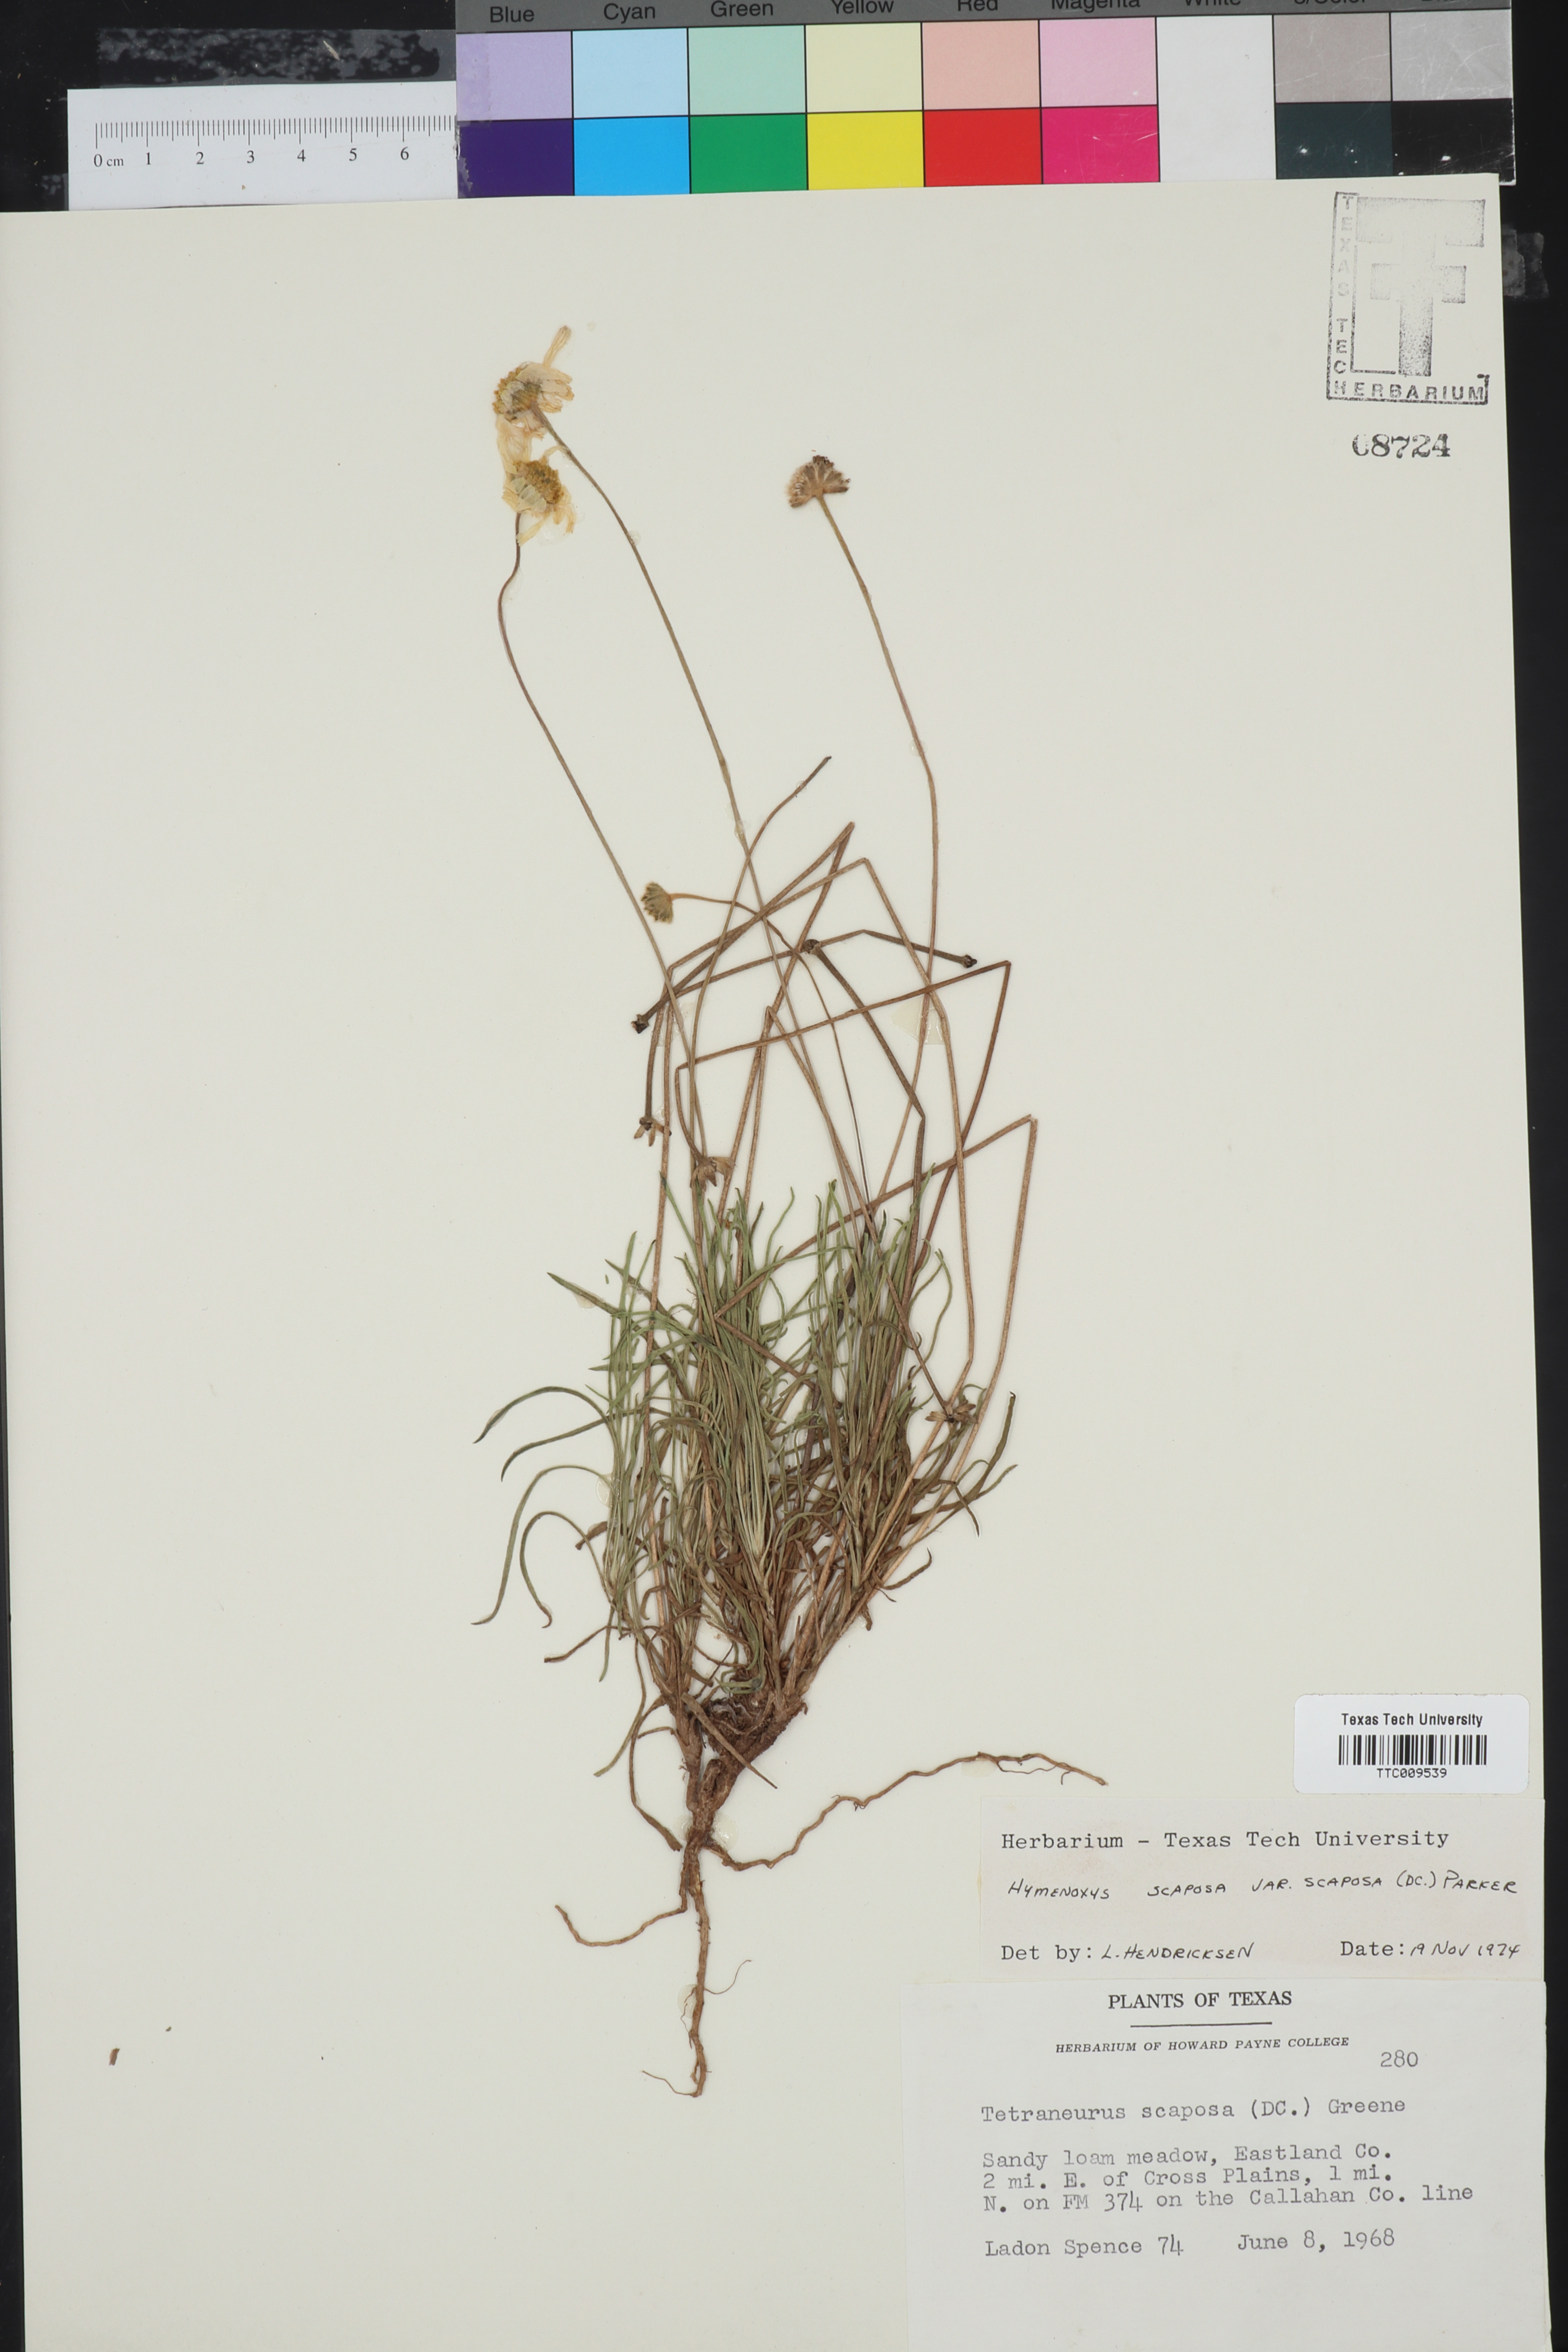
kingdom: Plantae
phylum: Tracheophyta
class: Magnoliopsida
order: Asterales
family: Asteraceae
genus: Tetraneuris
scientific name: Tetraneuris scaposa
